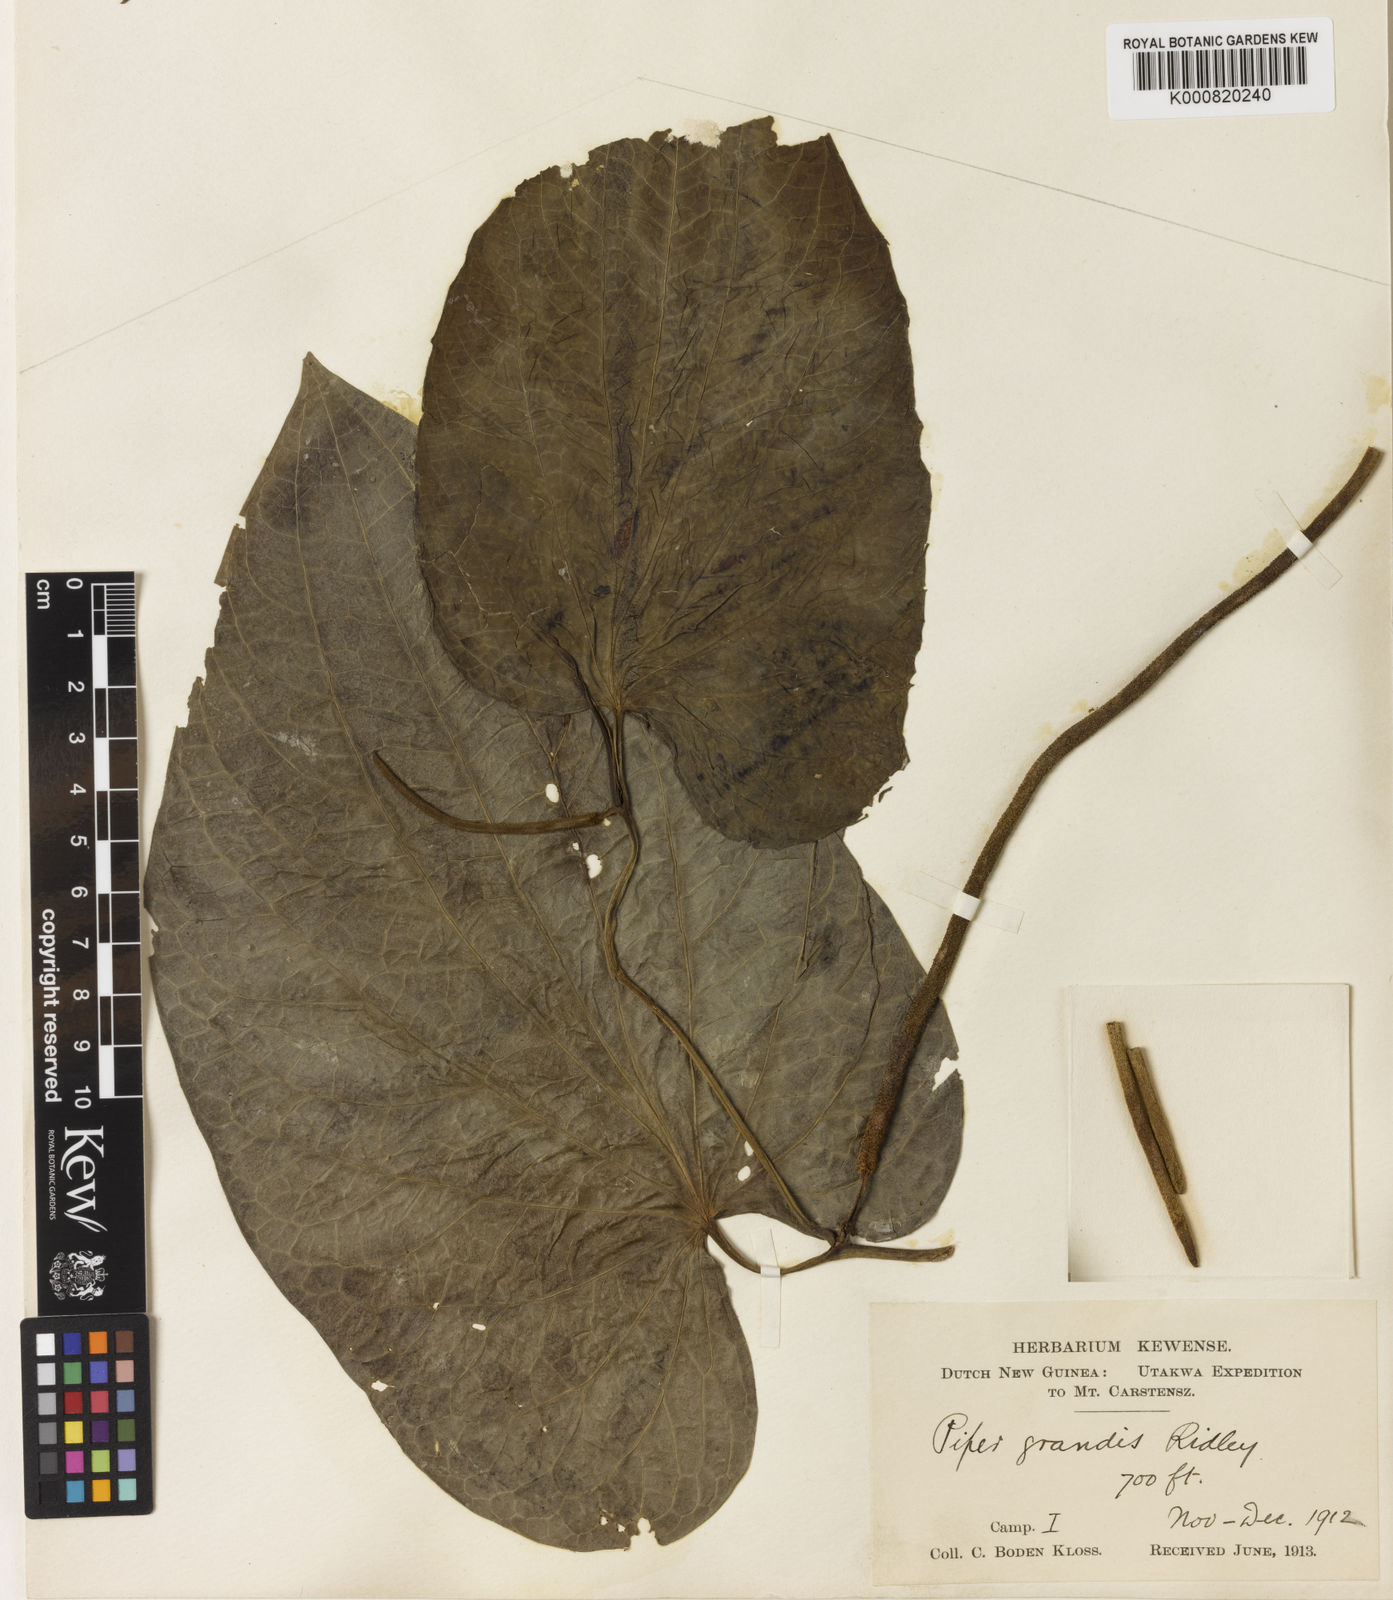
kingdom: Plantae
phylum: Tracheophyta
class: Magnoliopsida
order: Piperales
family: Piperaceae
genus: Piper
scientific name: Piper
